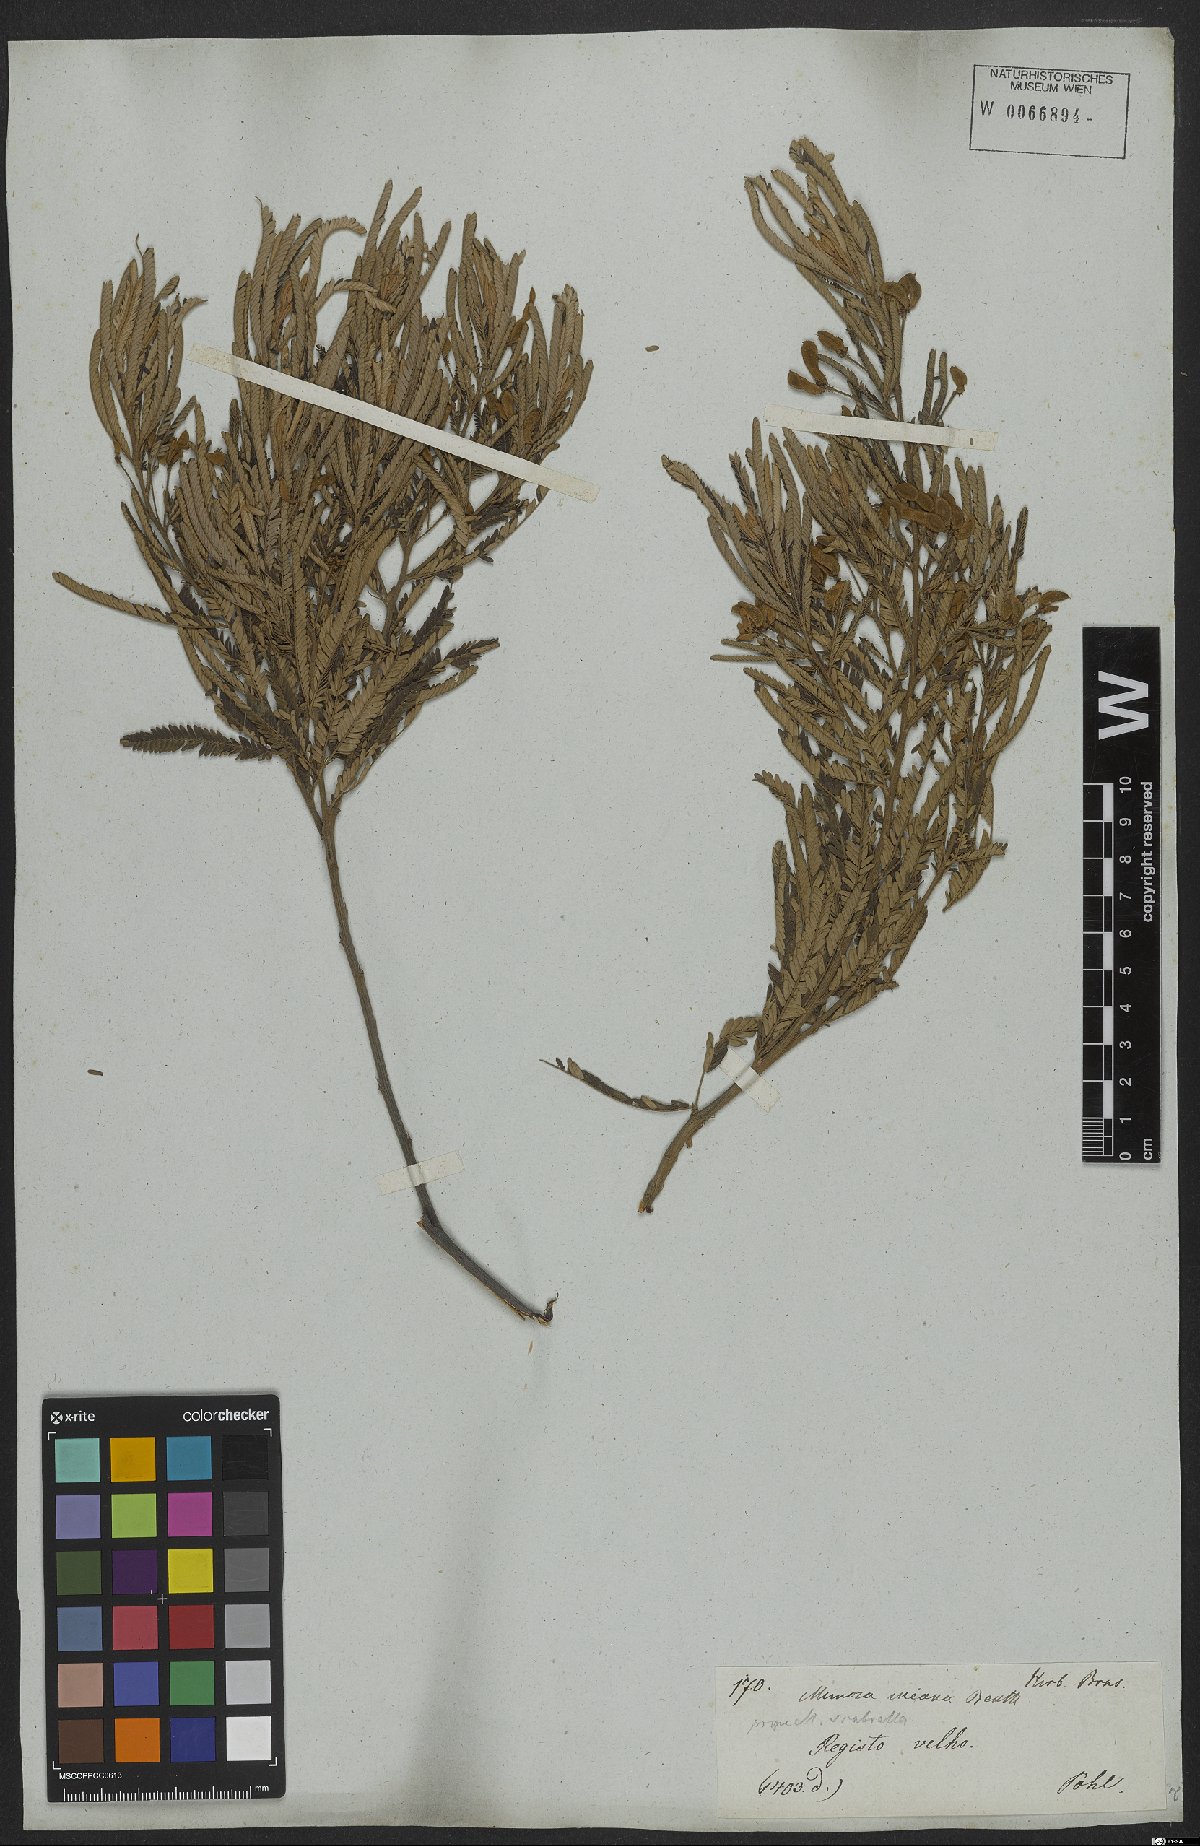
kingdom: Plantae
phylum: Tracheophyta
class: Magnoliopsida
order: Fabales
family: Fabaceae
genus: Mimosa
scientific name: Mimosa incana
